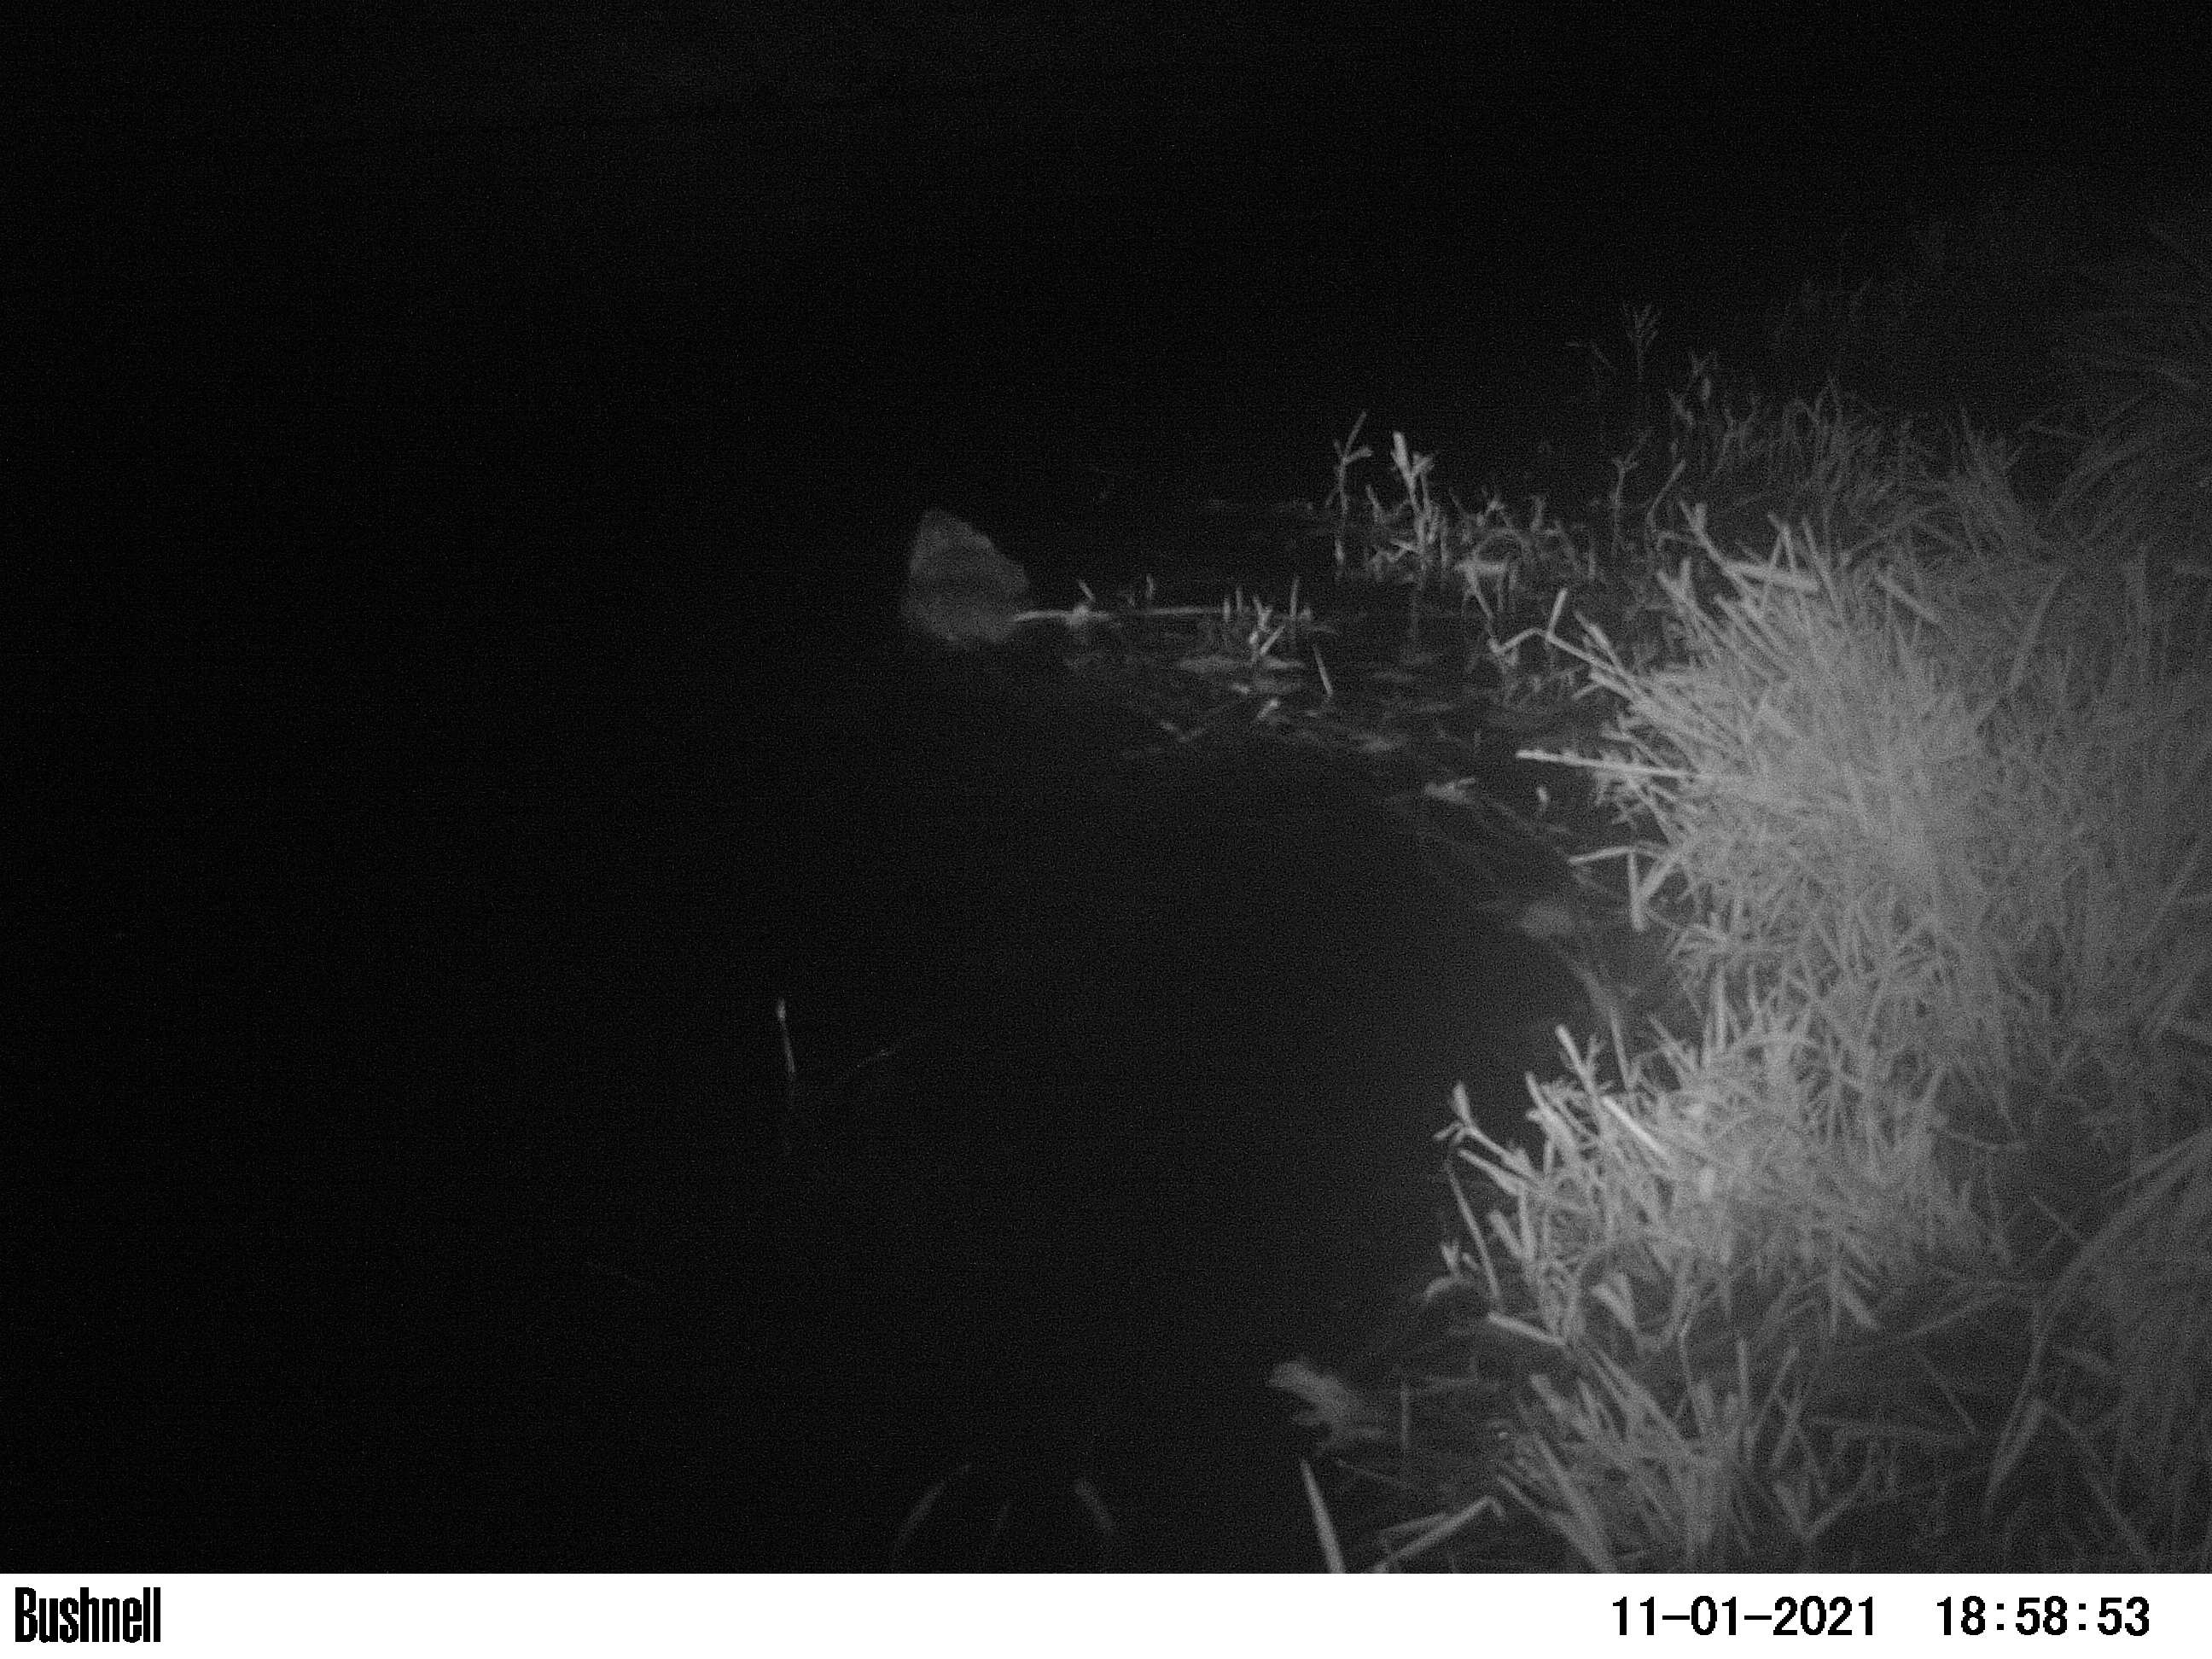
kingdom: Animalia
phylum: Chordata
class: Mammalia
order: Rodentia
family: Myocastoridae
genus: Myocastor
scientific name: Myocastor coypus
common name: Coypu
